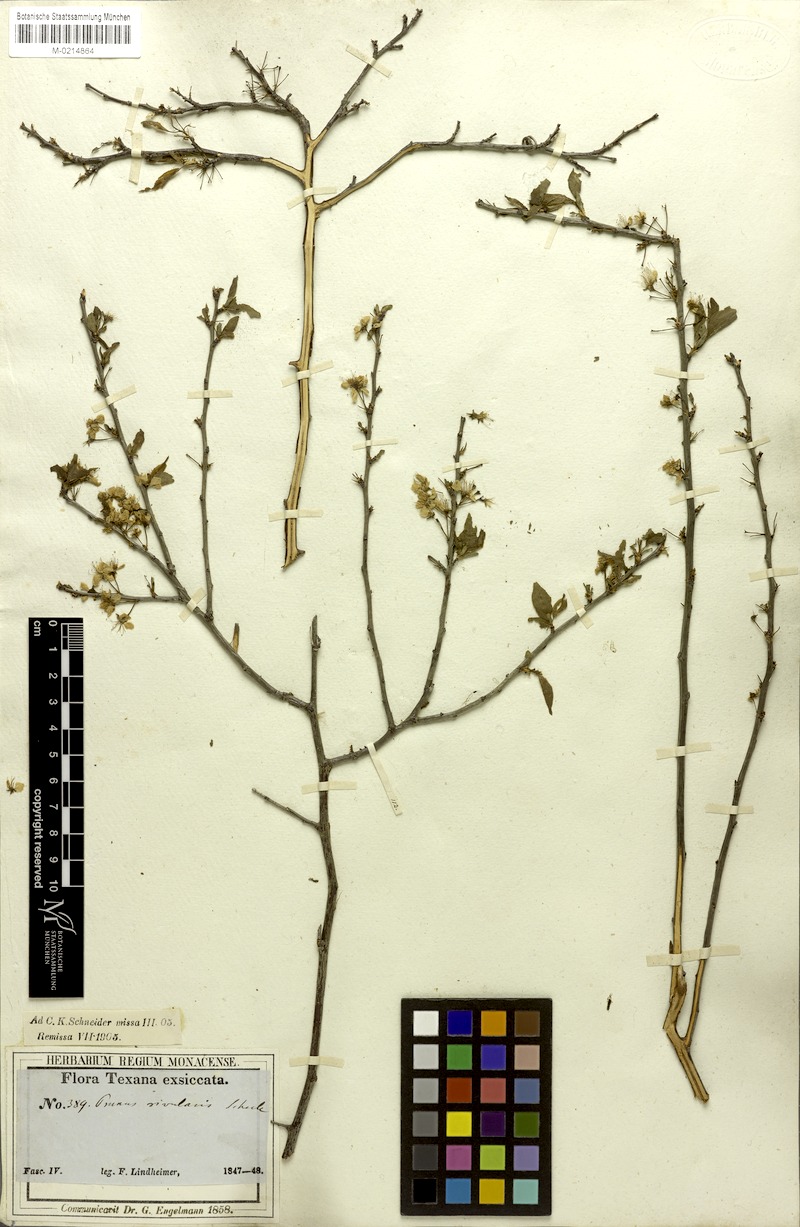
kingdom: Plantae
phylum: Tracheophyta
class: Magnoliopsida
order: Rosales
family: Rosaceae
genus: Prunus
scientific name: Prunus rivularis
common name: Creek plum
